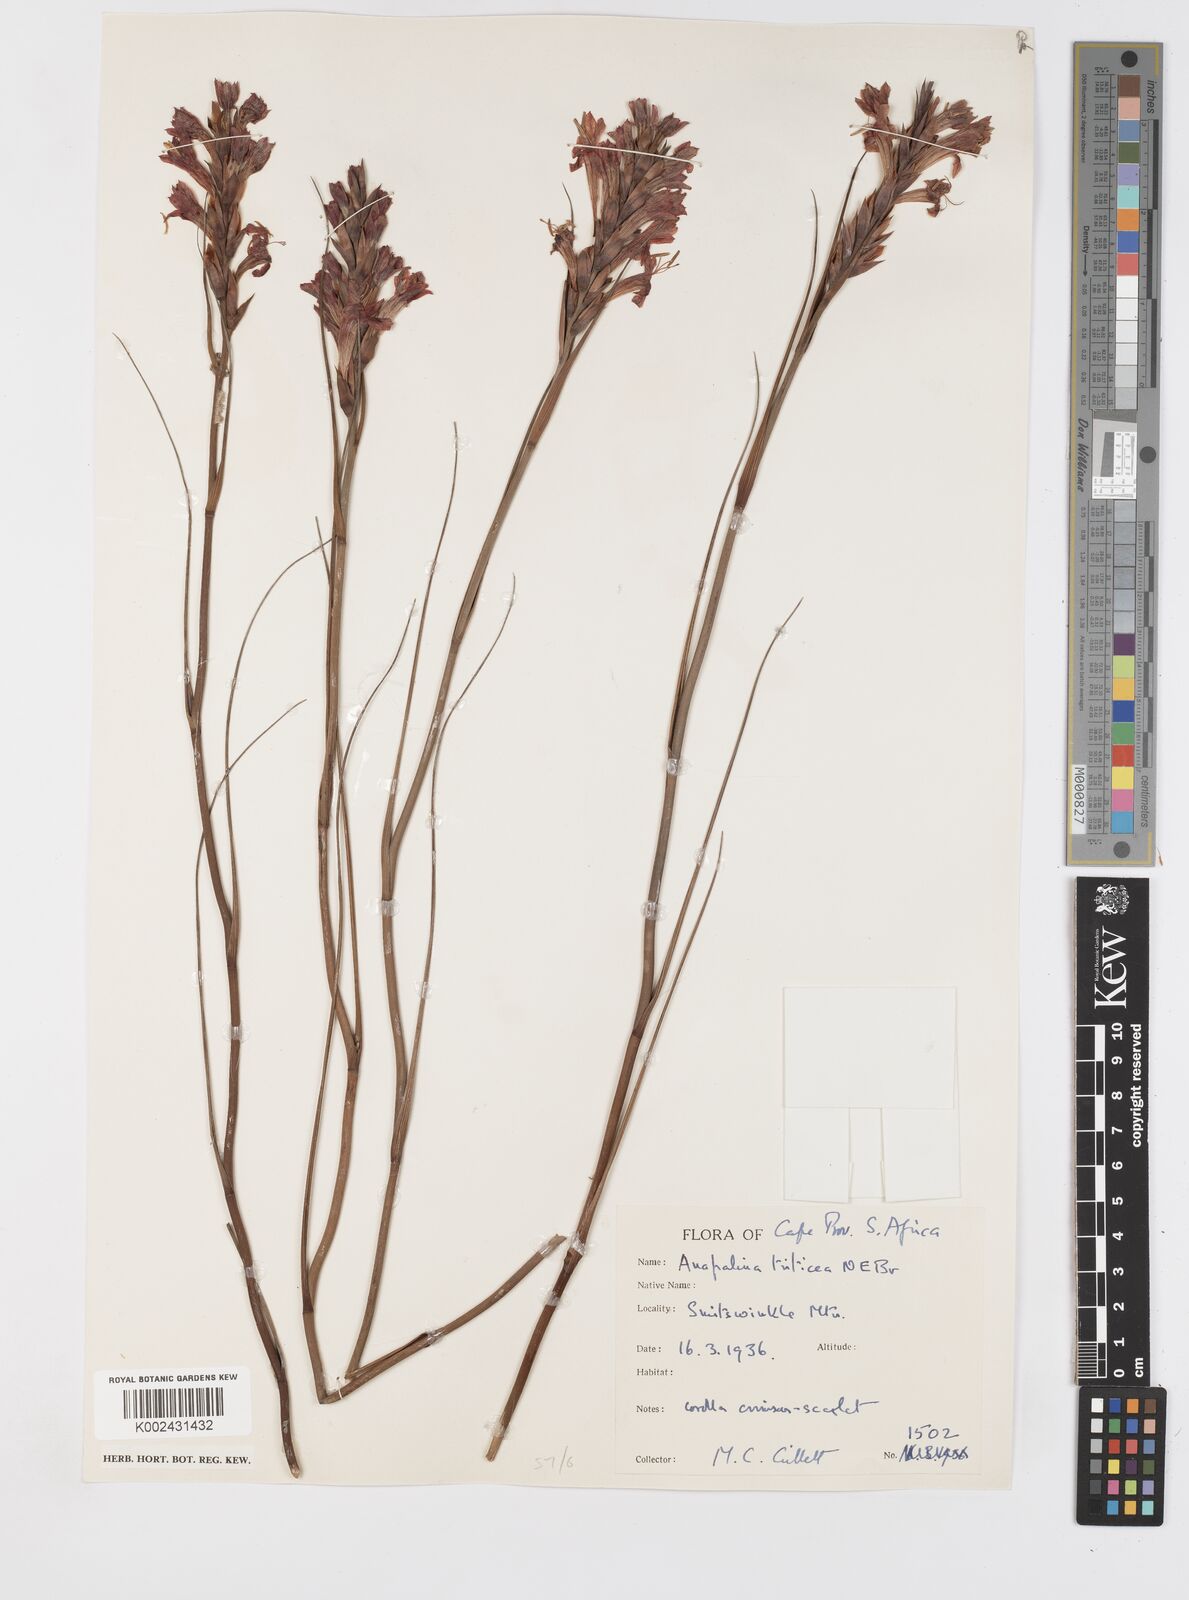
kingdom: Plantae
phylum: Tracheophyta
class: Liliopsida
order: Asparagales
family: Iridaceae
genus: Tritoniopsis
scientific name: Tritoniopsis triticea
